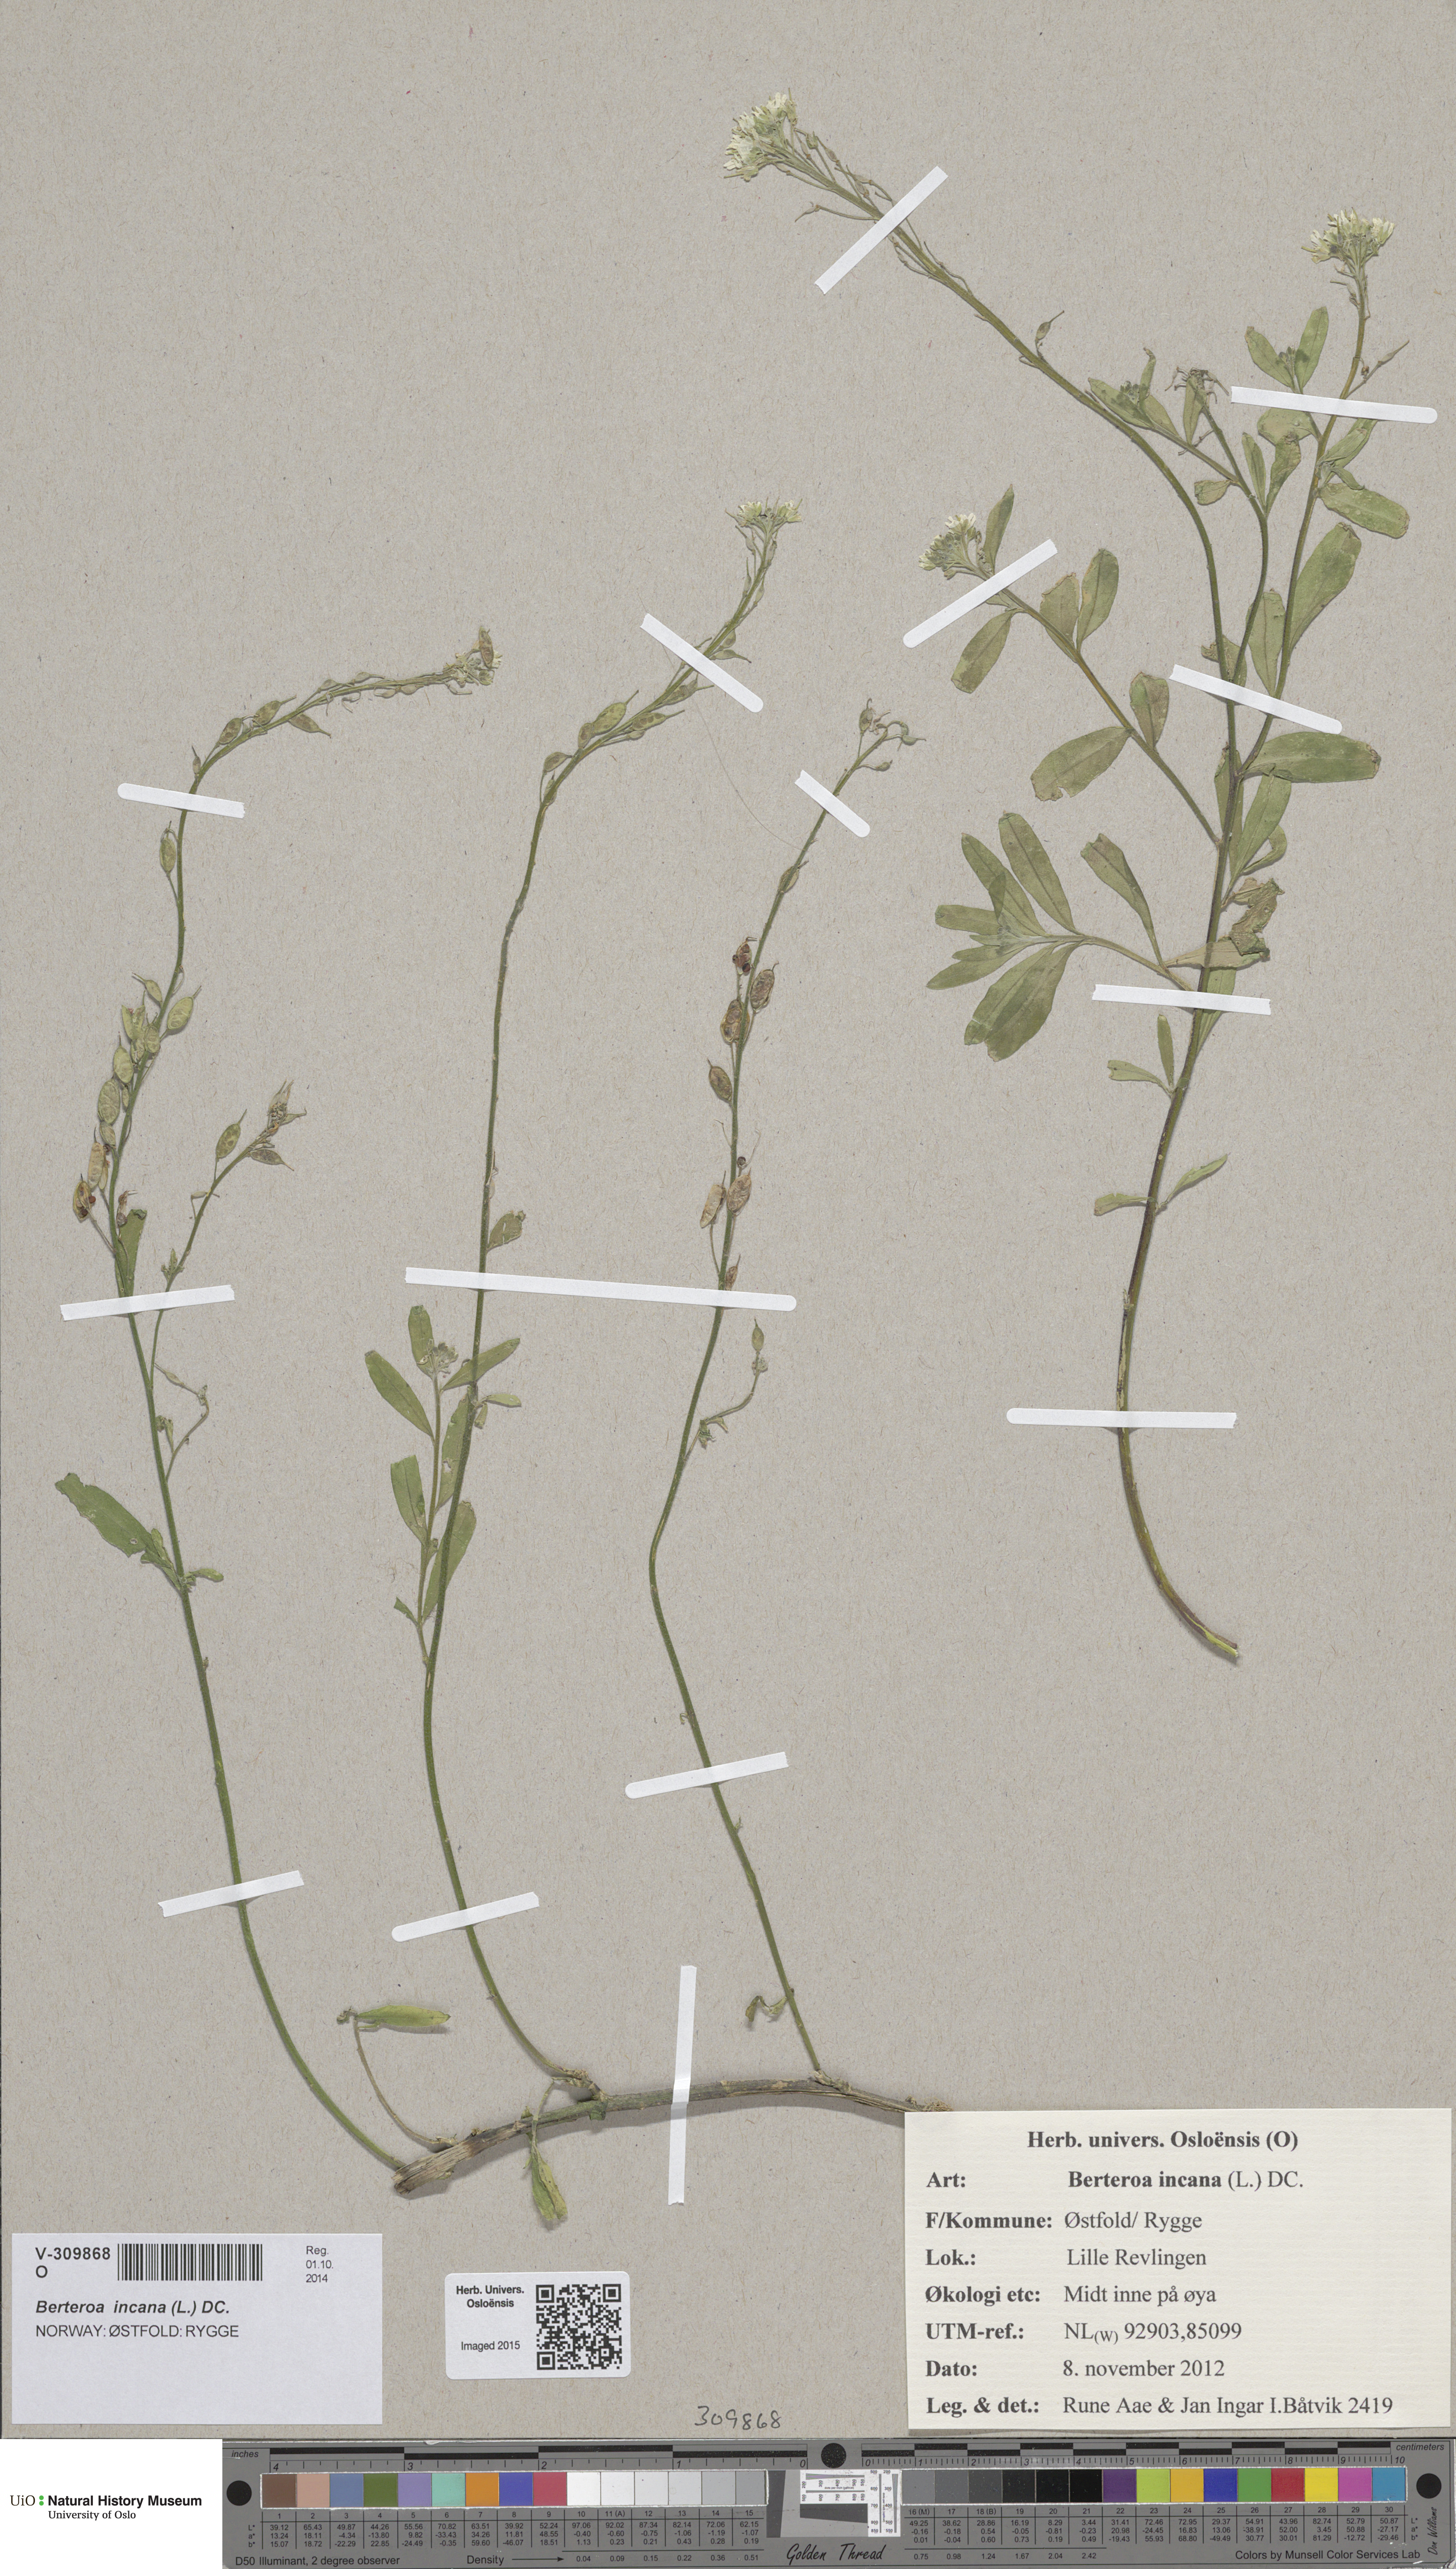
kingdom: Plantae
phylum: Tracheophyta
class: Magnoliopsida
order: Brassicales
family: Brassicaceae
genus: Berteroa
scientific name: Berteroa incana
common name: Hoary alison
